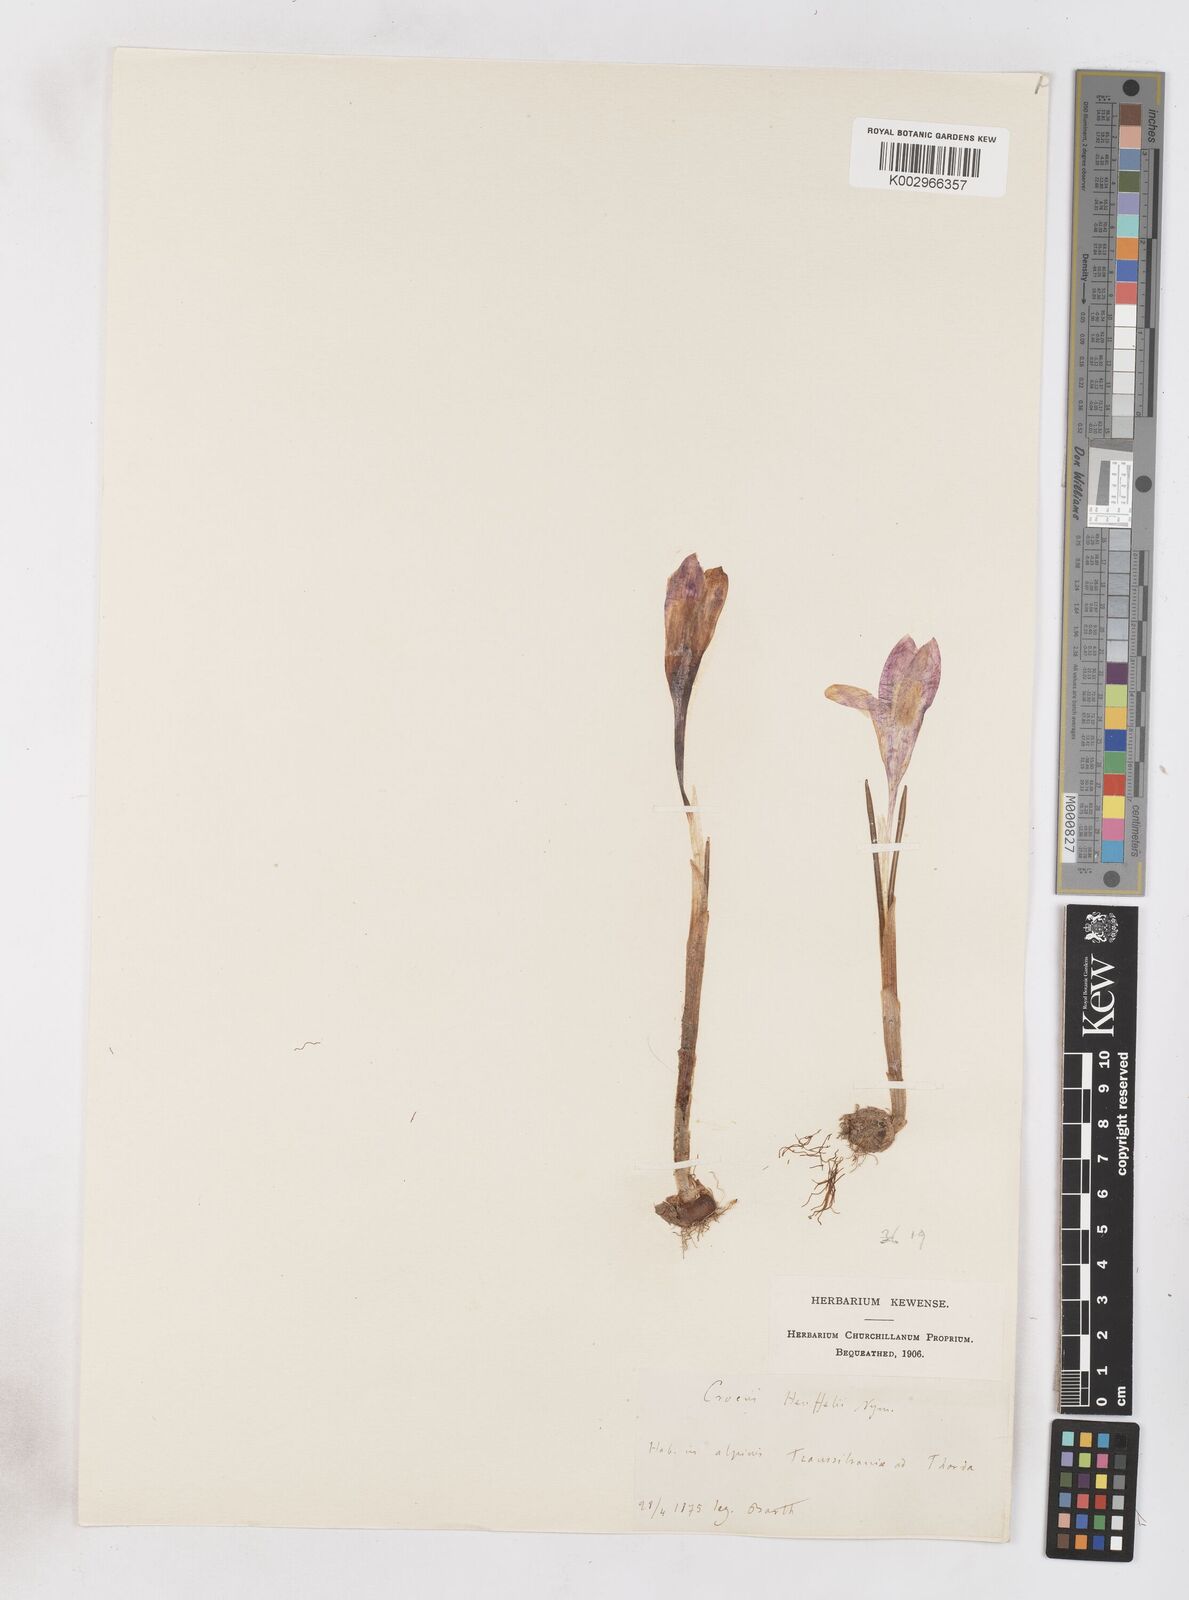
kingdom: Plantae
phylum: Tracheophyta
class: Liliopsida
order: Asparagales
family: Iridaceae
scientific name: Iridaceae
